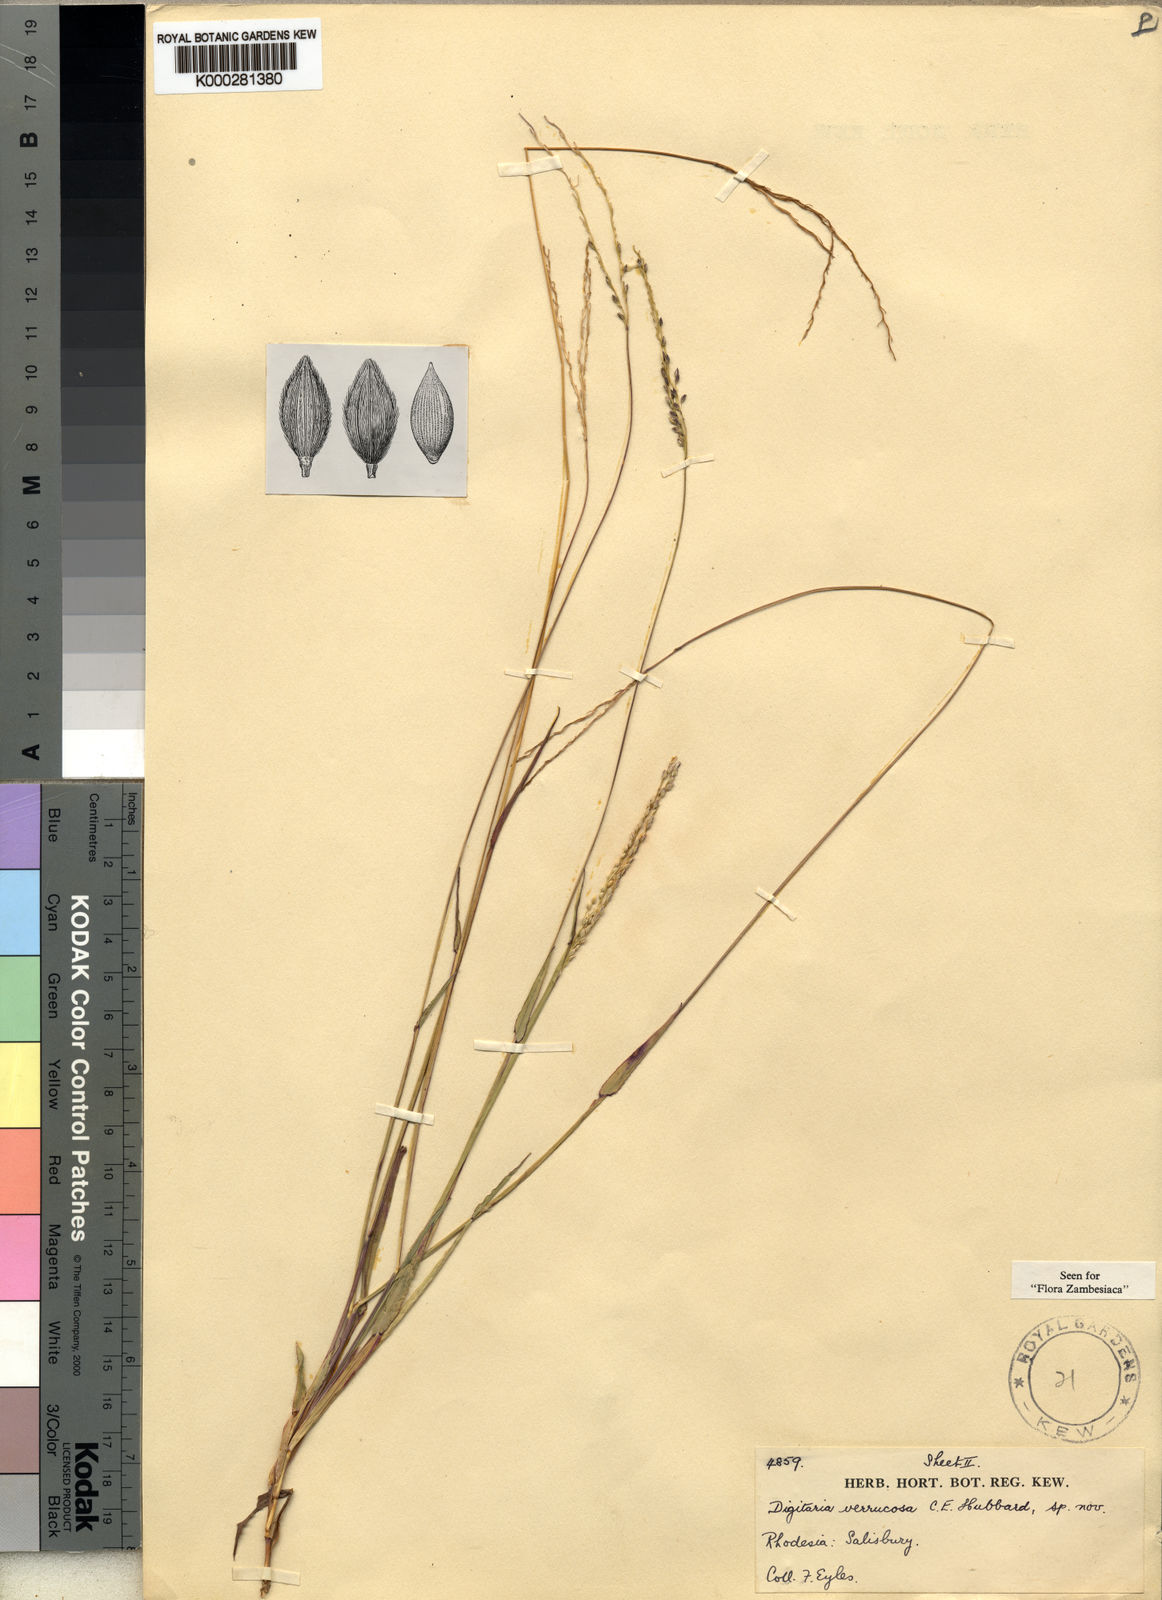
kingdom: Plantae
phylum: Tracheophyta
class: Liliopsida
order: Poales
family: Poaceae
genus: Digitaria
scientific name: Digitaria angolensis
